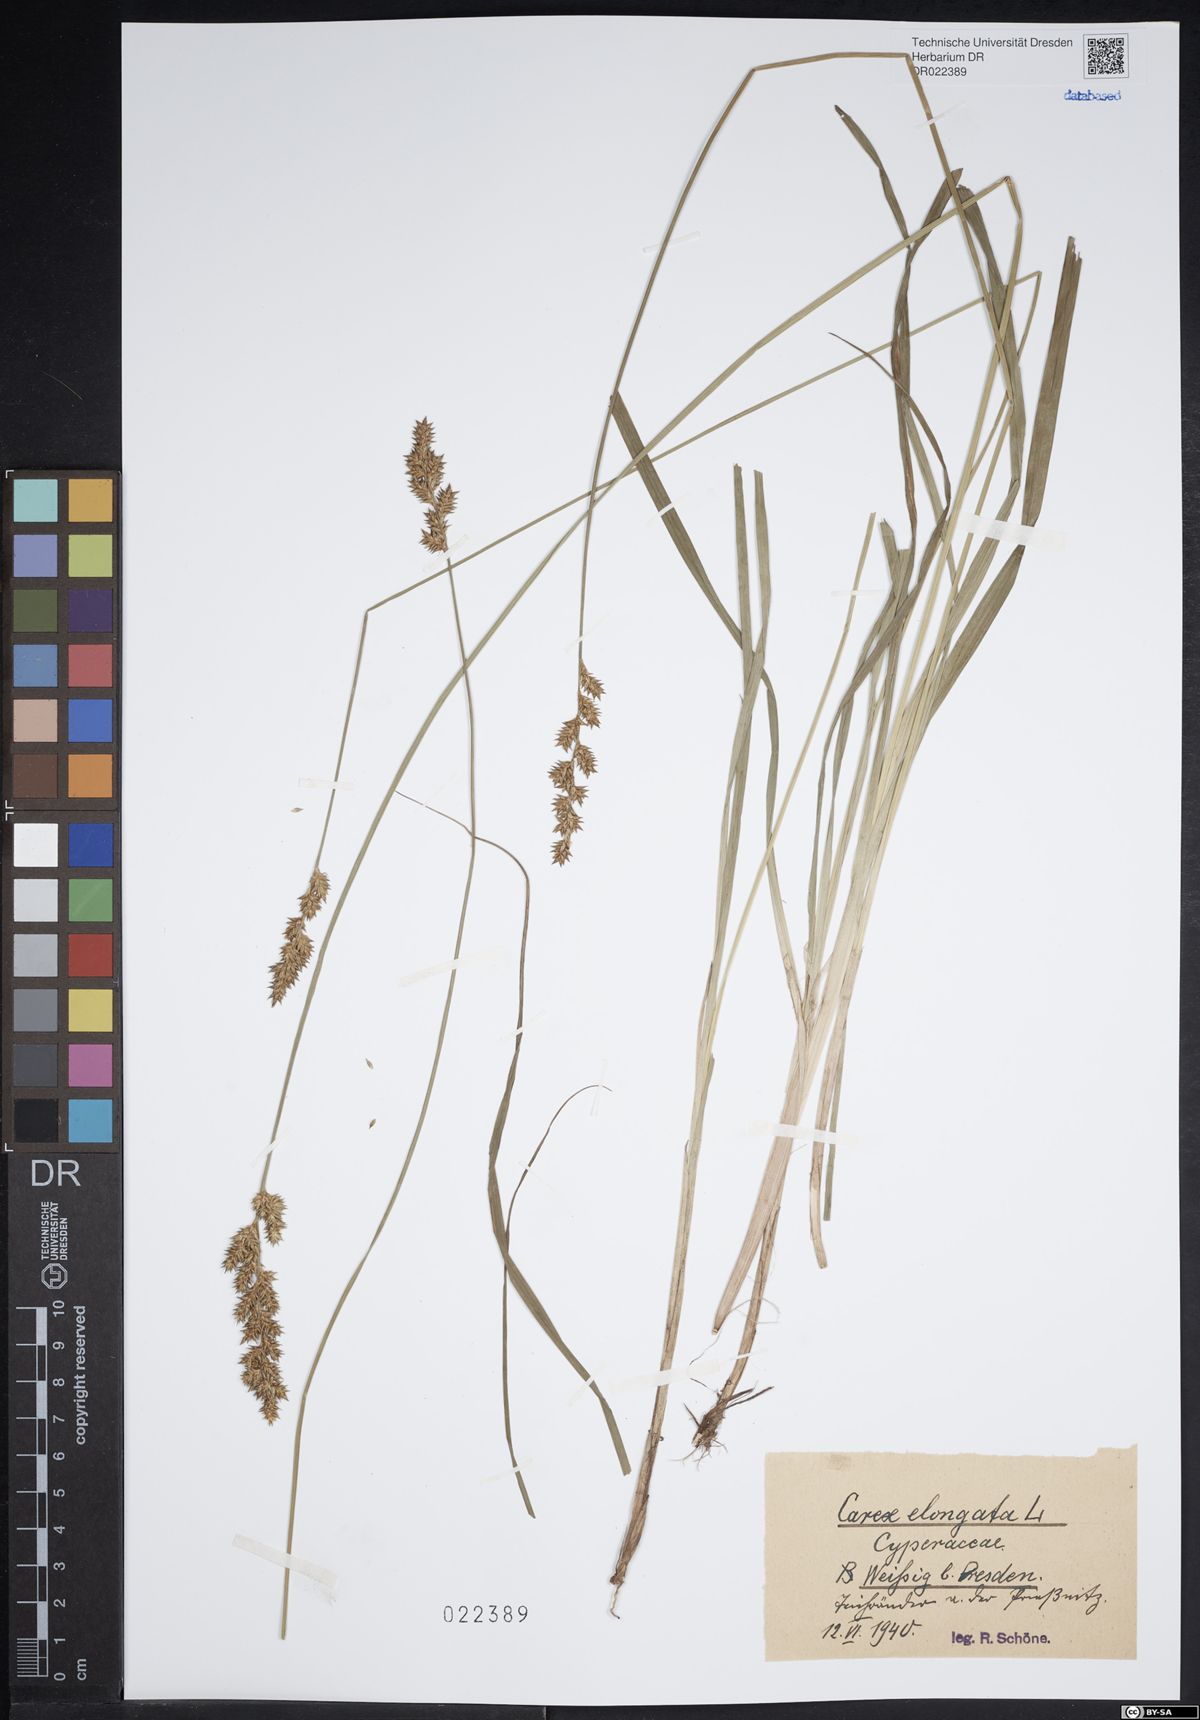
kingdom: Plantae
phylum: Tracheophyta
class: Liliopsida
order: Poales
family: Cyperaceae
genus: Carex
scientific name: Carex elongata
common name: Elongated sedge
